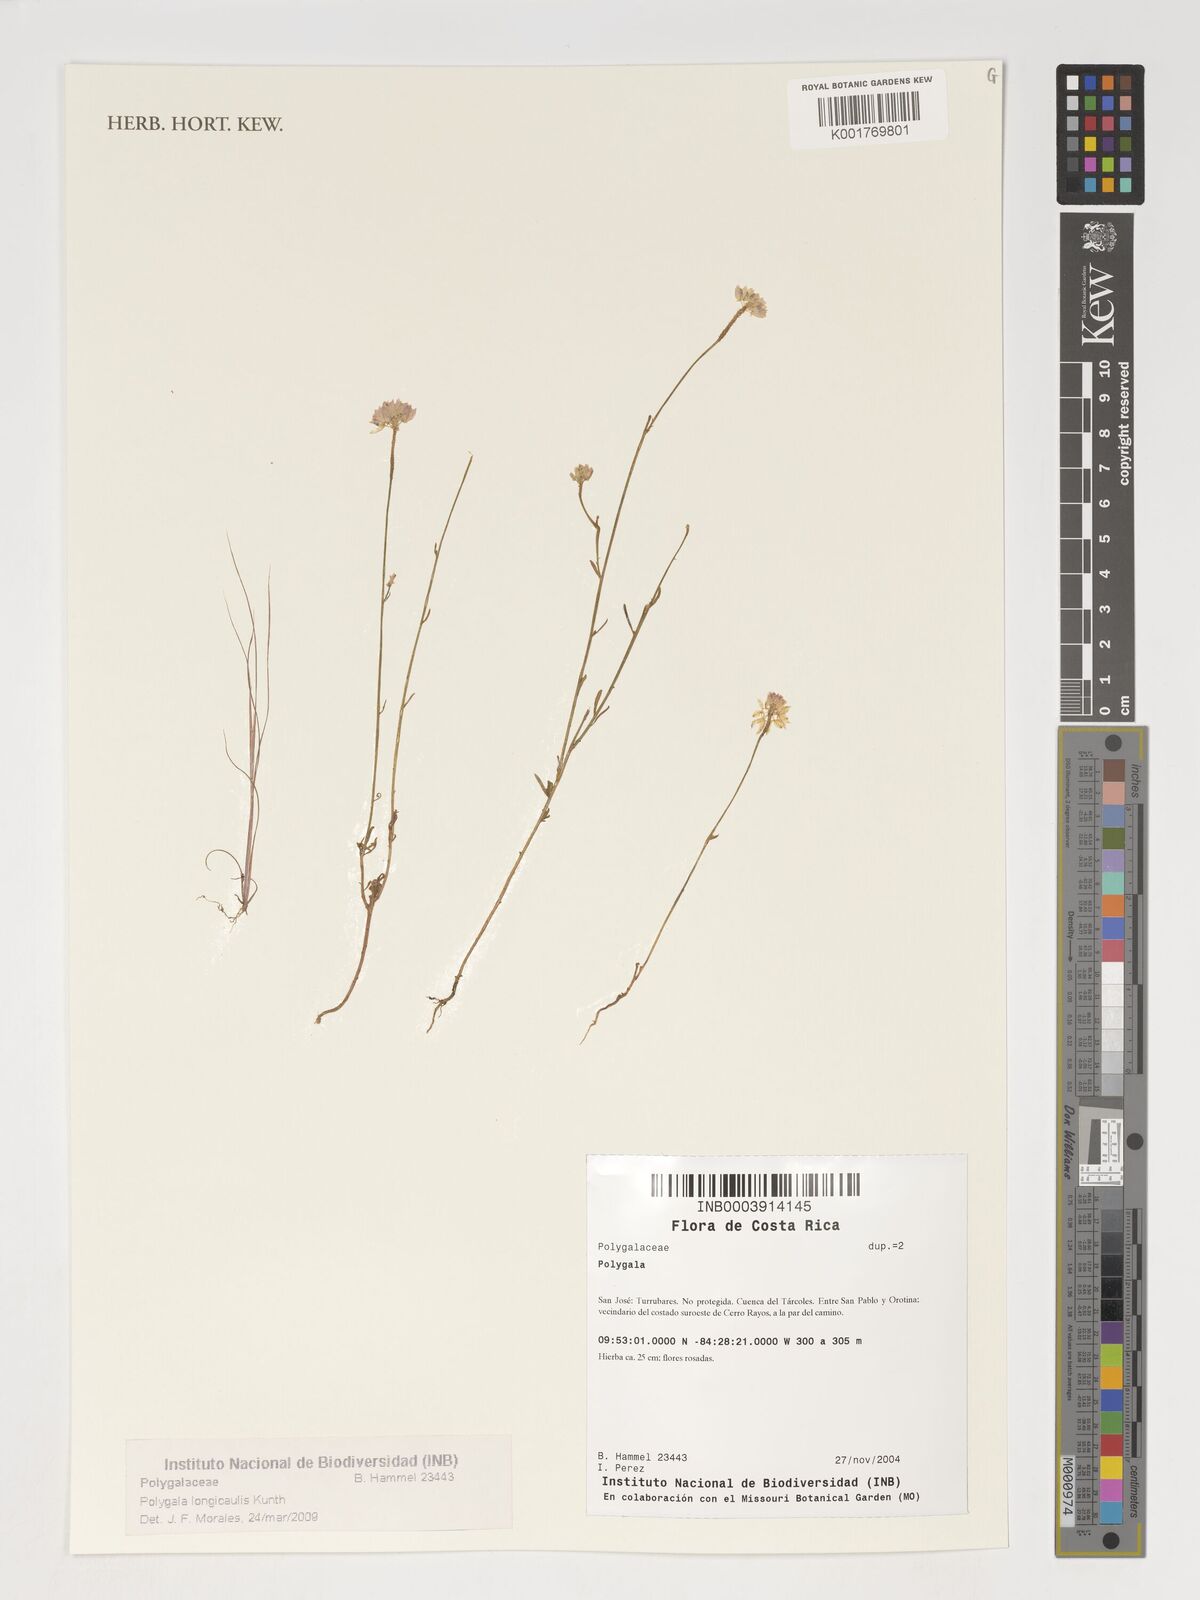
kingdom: Plantae
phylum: Tracheophyta
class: Magnoliopsida
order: Fabales
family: Polygalaceae
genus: Polygala
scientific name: Polygala longicaulis
